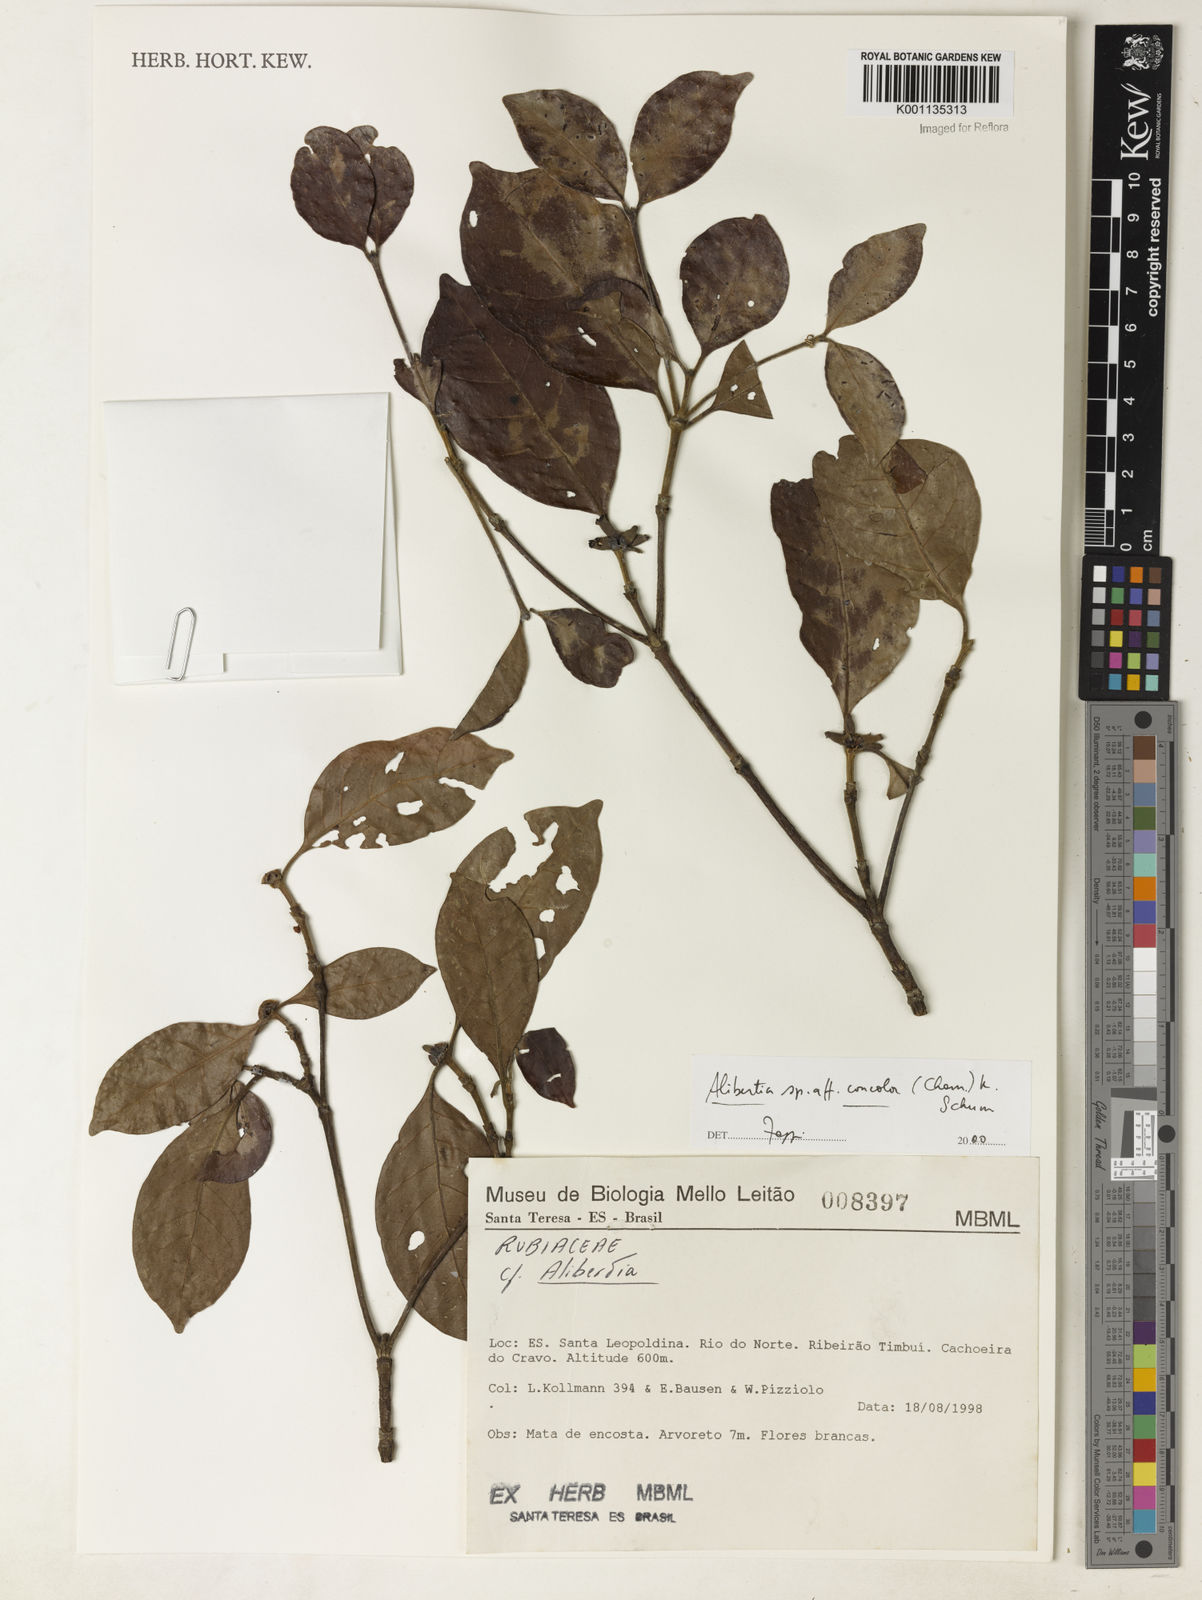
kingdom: Plantae
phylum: Tracheophyta
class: Magnoliopsida
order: Gentianales
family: Rubiaceae
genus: Cordiera
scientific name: Cordiera concolor
